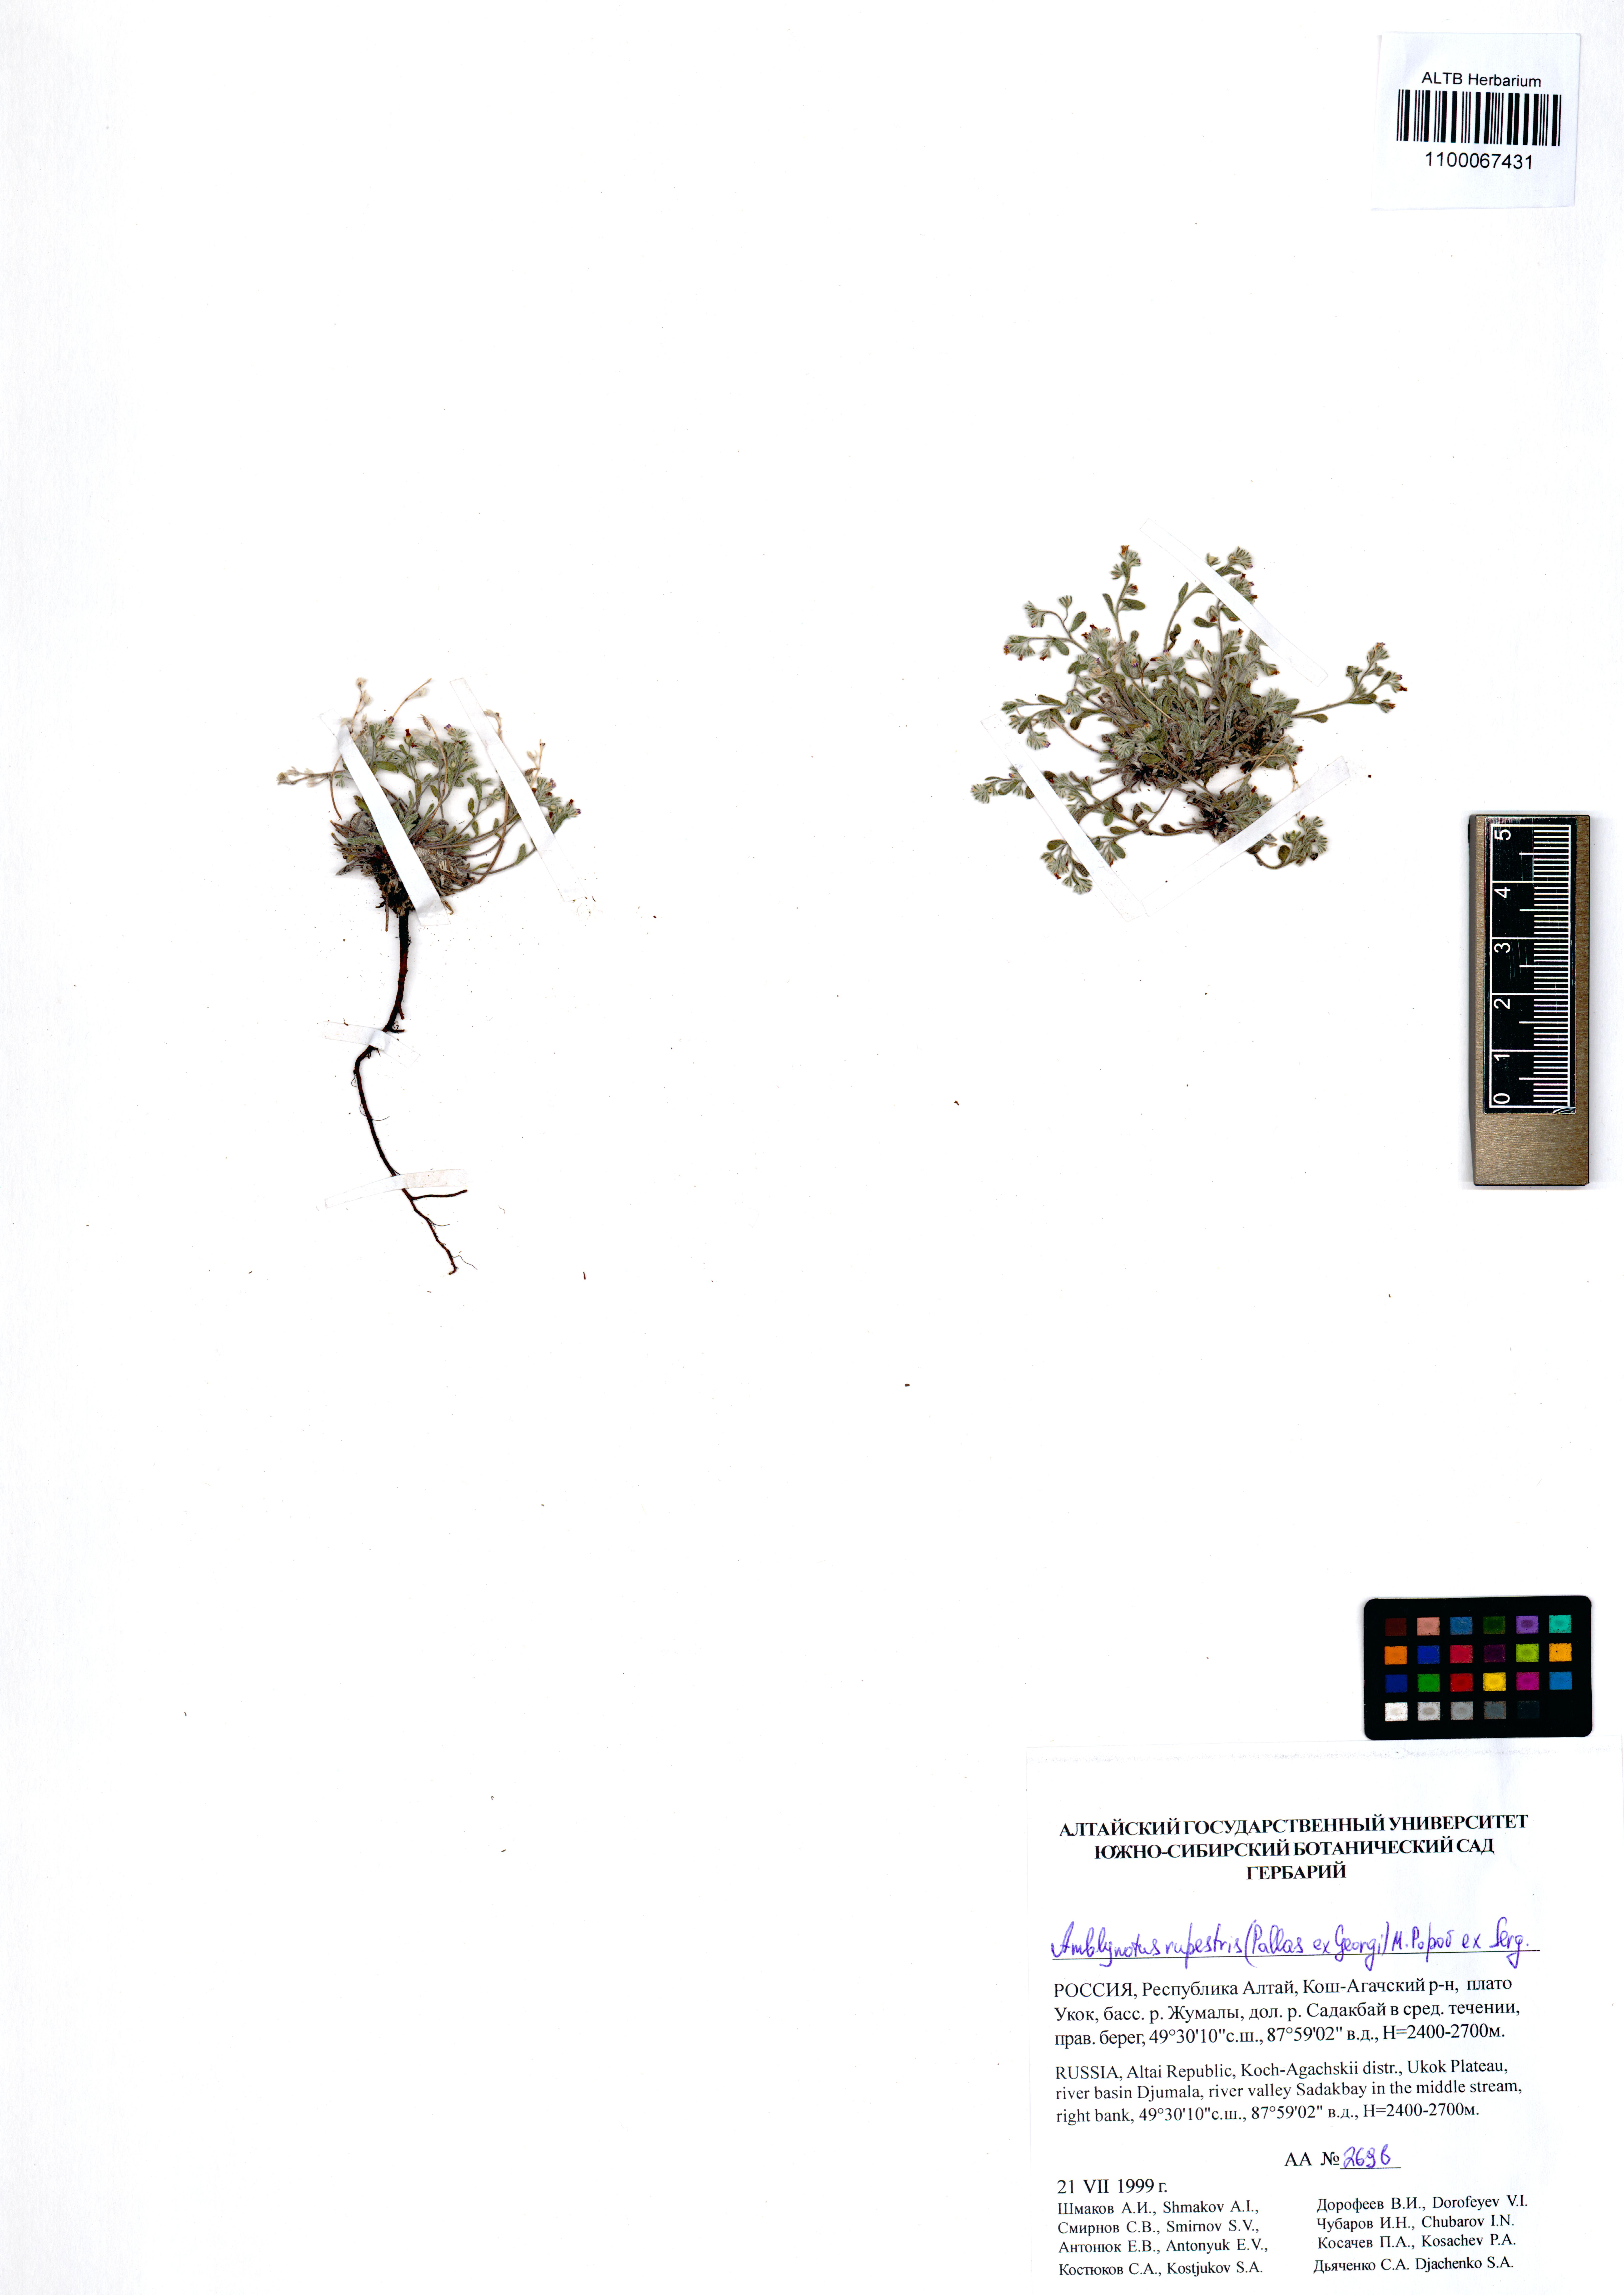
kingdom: Plantae
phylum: Tracheophyta
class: Magnoliopsida
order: Boraginales
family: Boraginaceae
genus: Eritrichium
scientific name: Eritrichium rupestre
